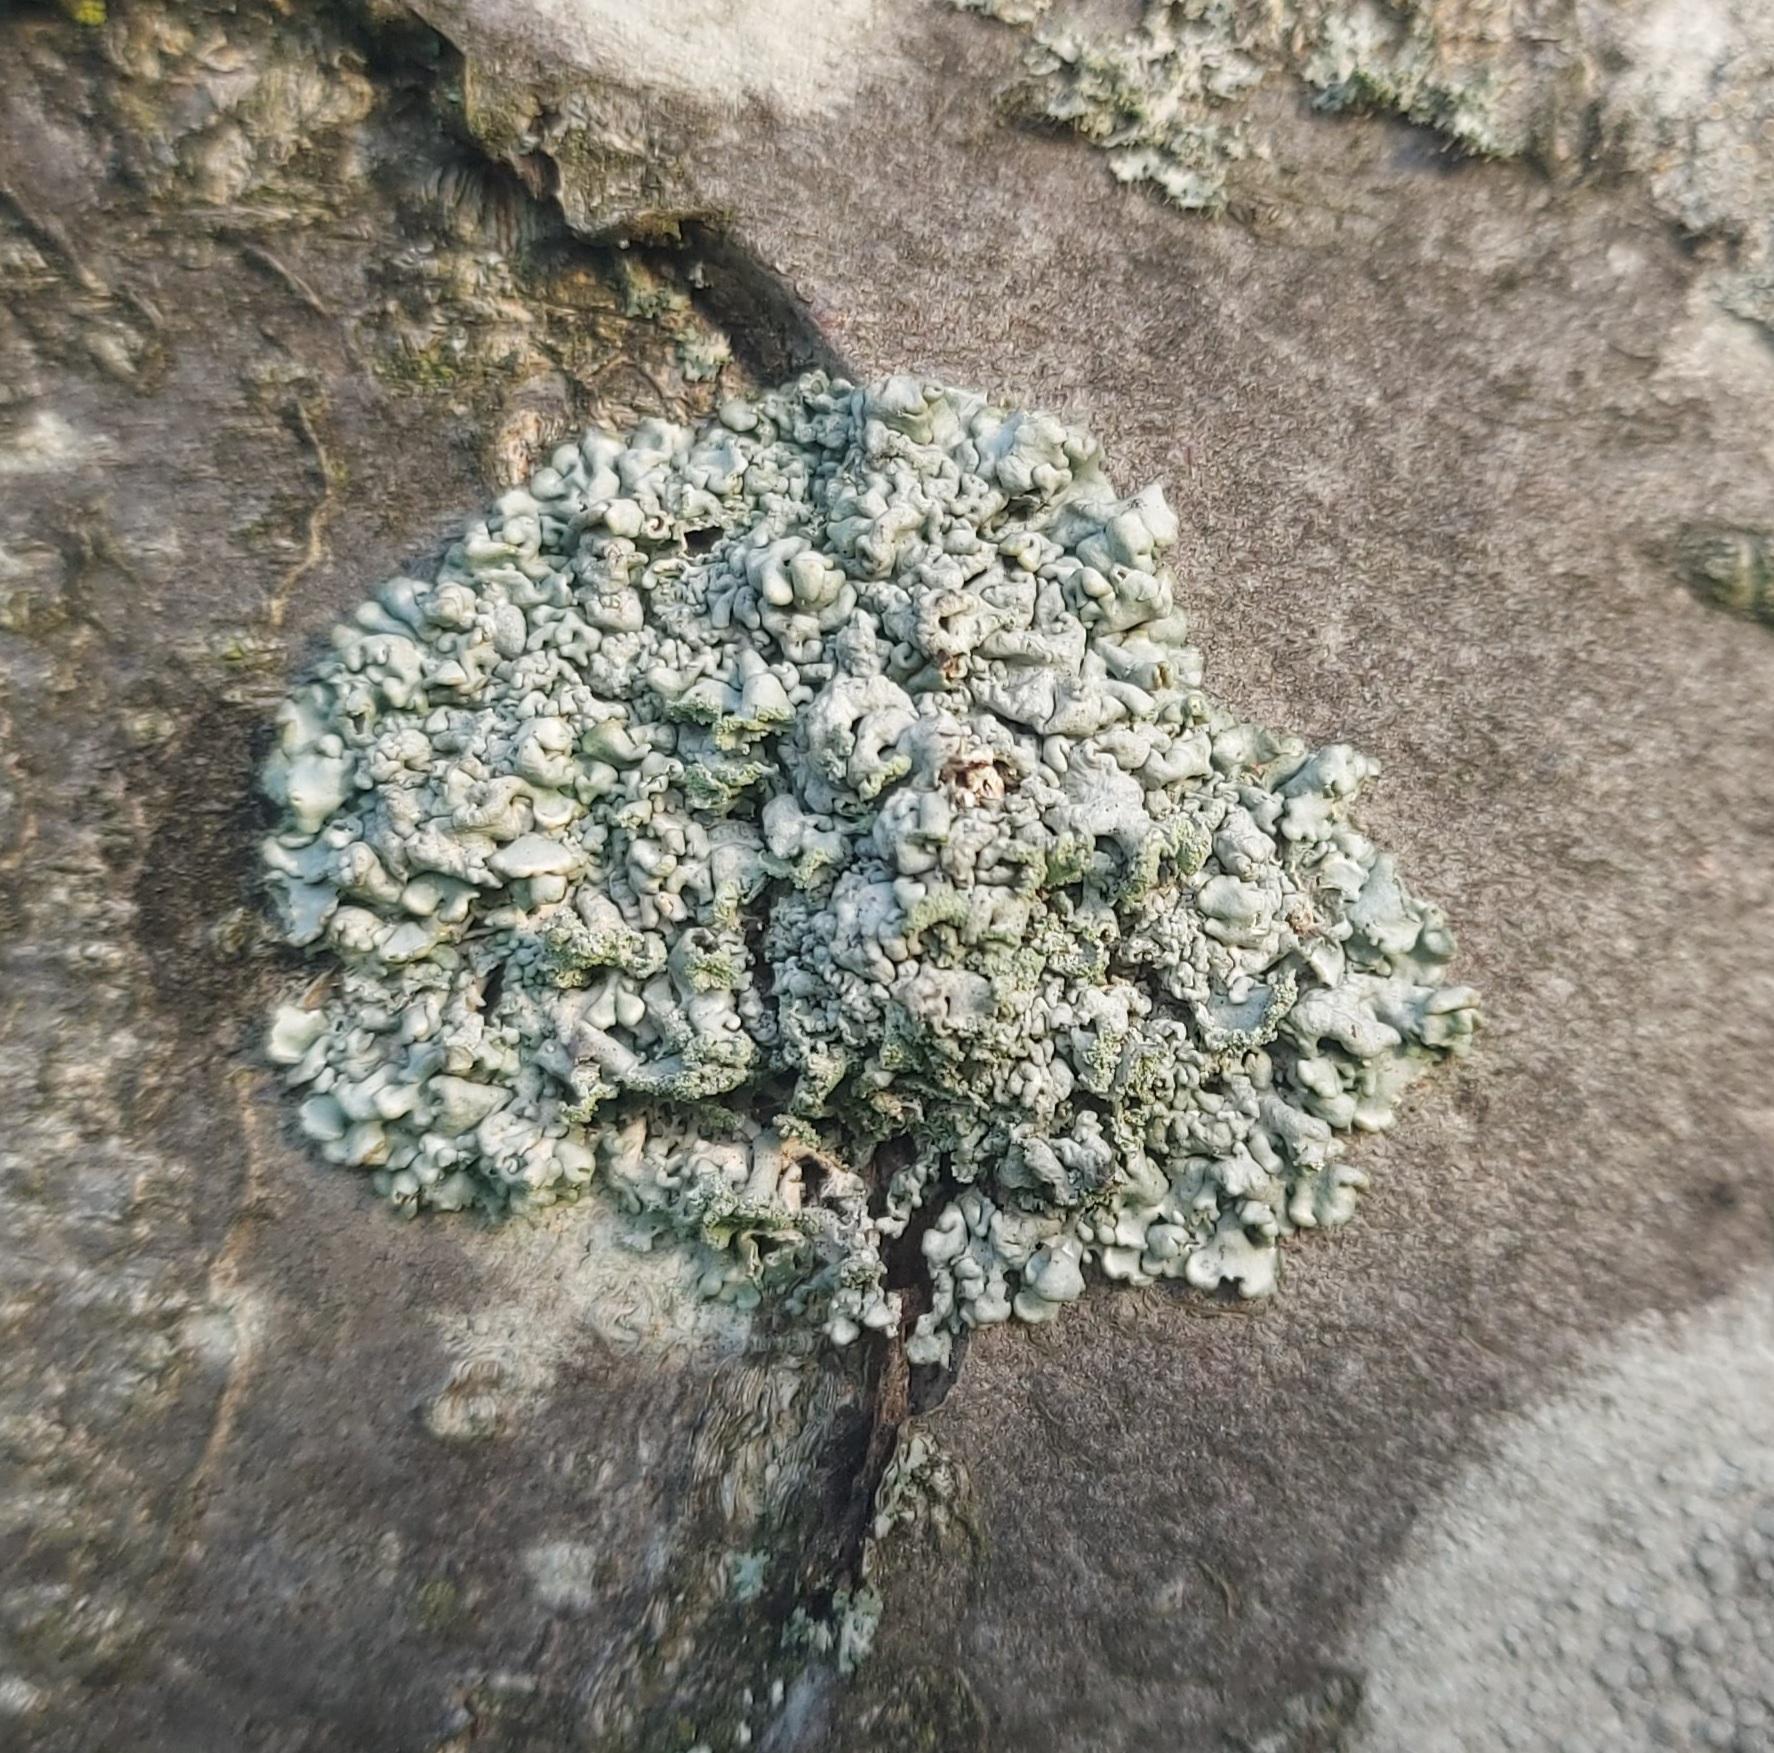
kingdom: Fungi
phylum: Ascomycota
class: Lecanoromycetes
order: Lecanorales
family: Parmeliaceae
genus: Hypogymnia
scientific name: Hypogymnia physodes
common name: almindelig kvistlav
